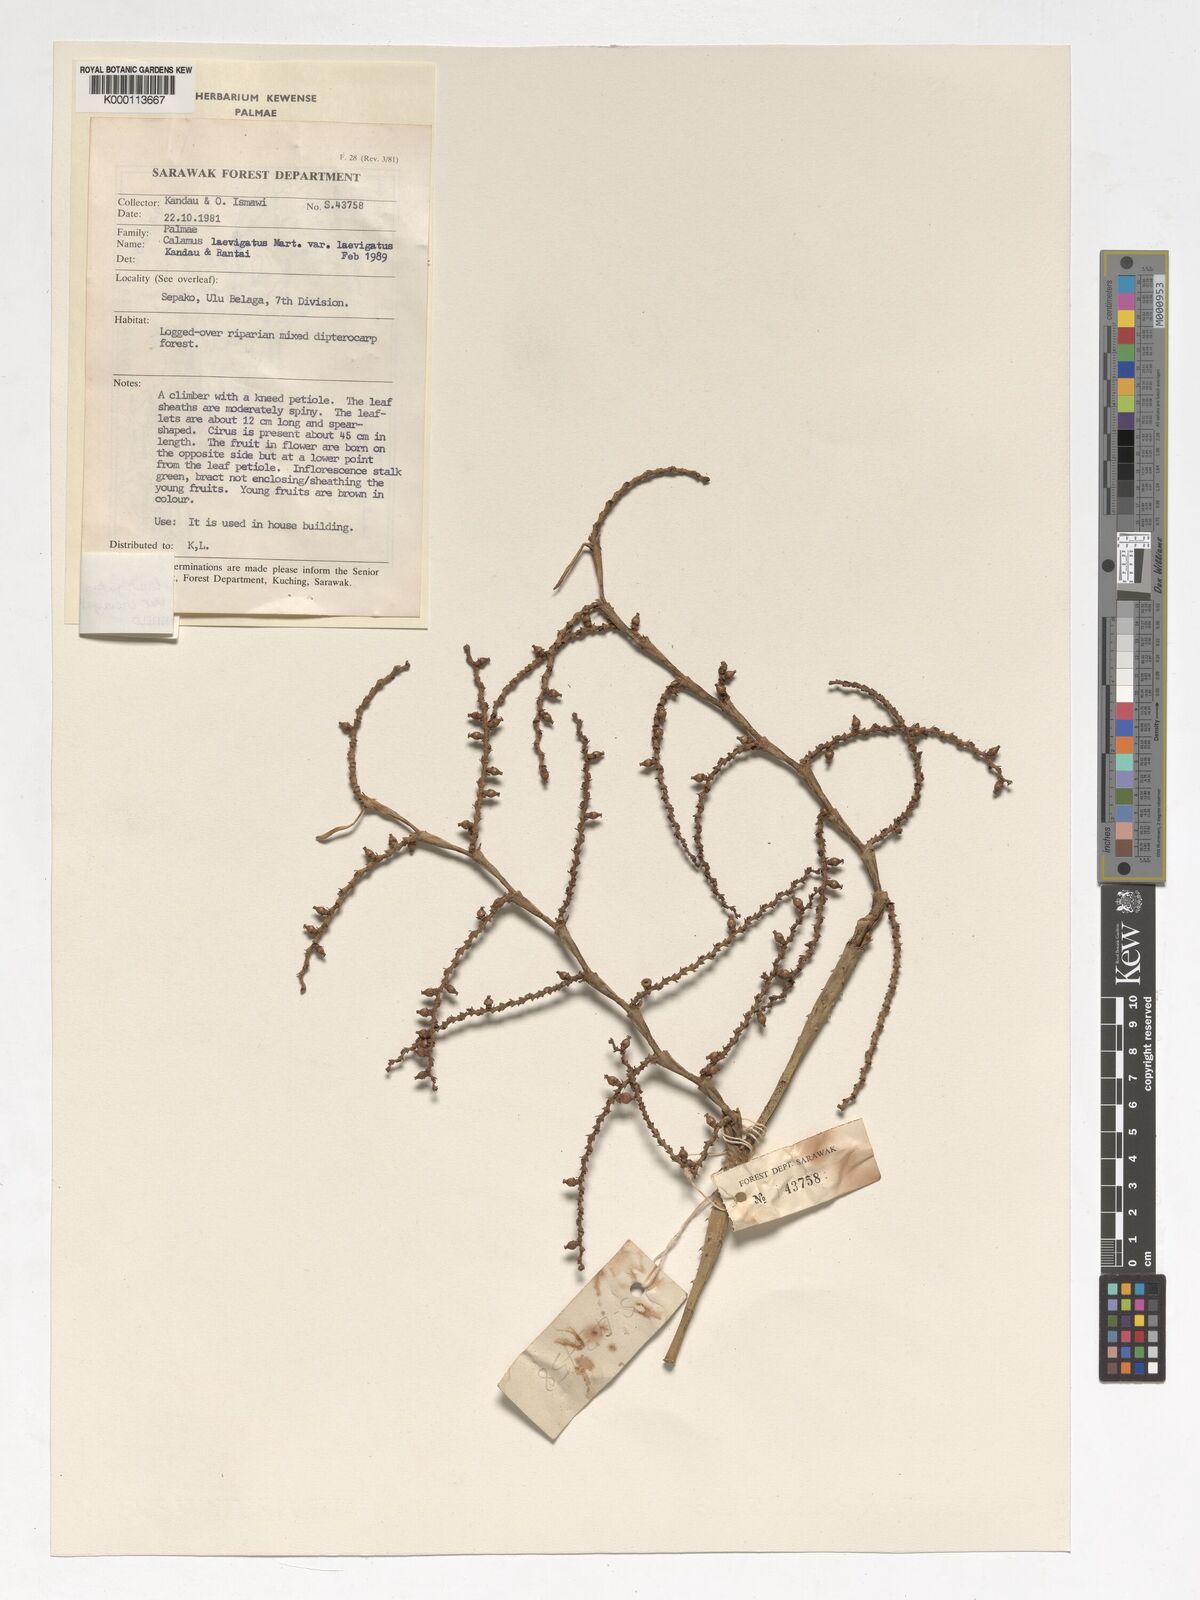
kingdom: Plantae
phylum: Tracheophyta
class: Liliopsida
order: Arecales
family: Arecaceae
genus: Calamus
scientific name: Calamus
